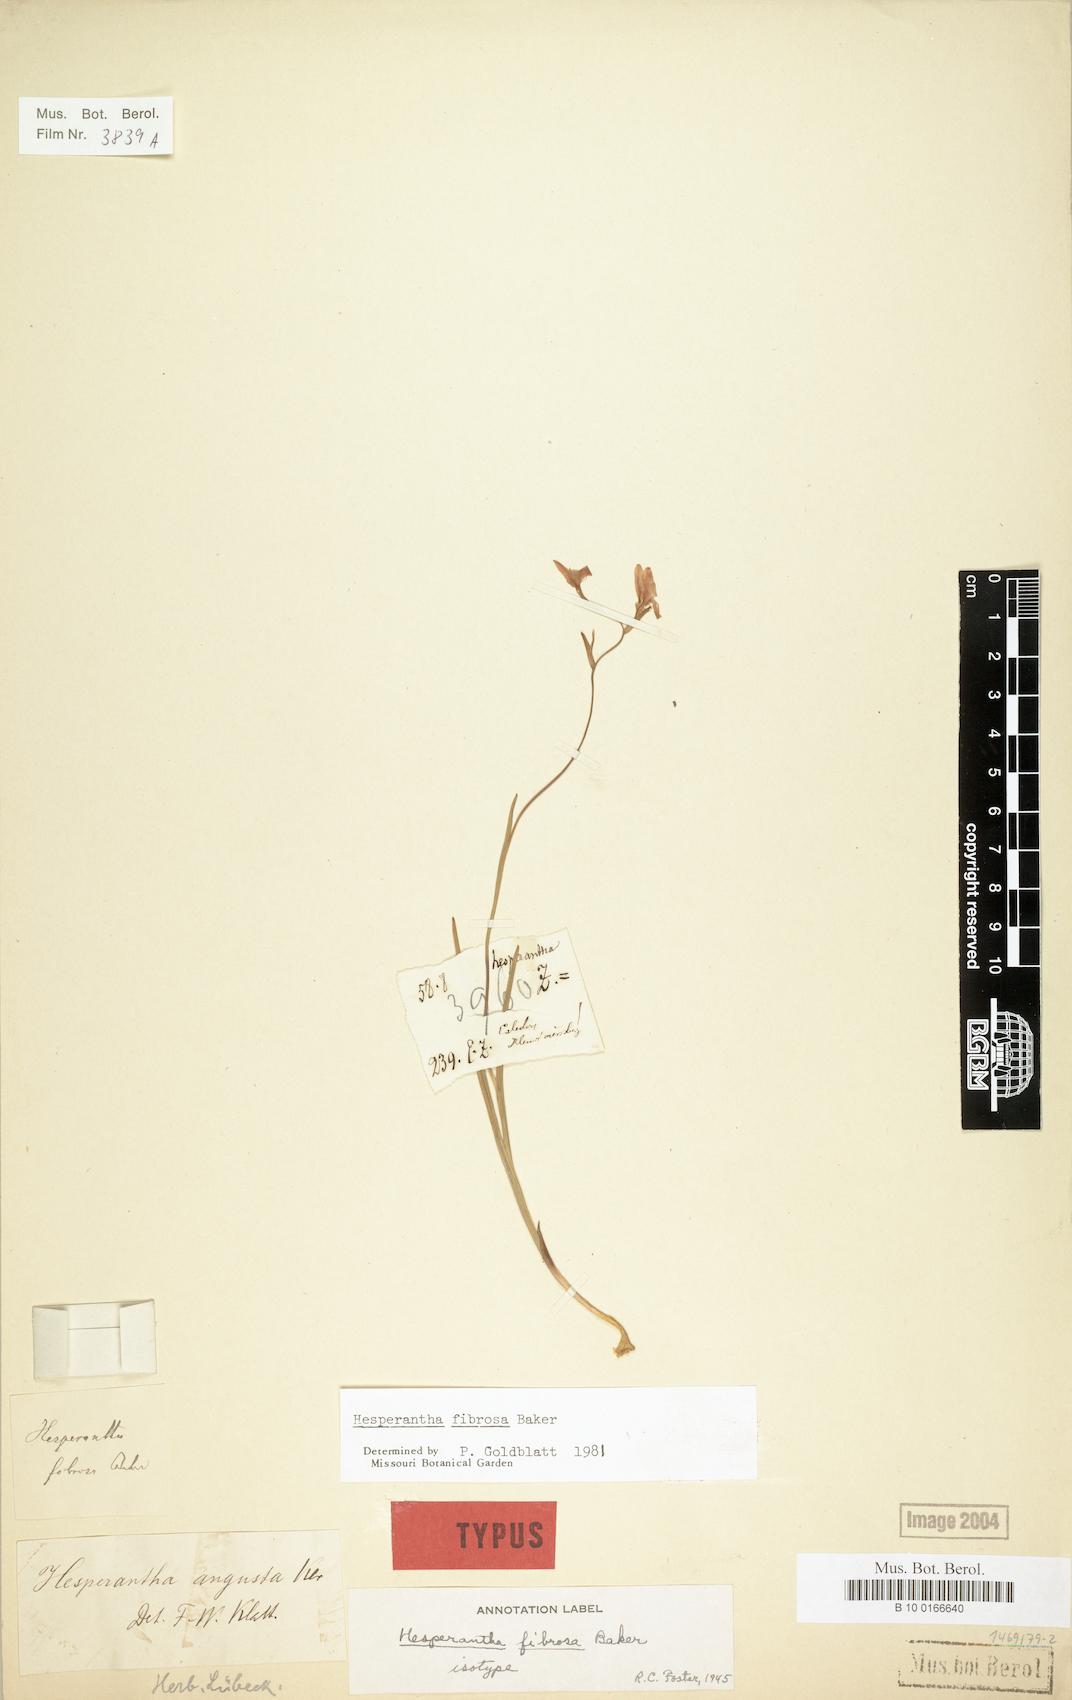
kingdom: Plantae
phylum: Tracheophyta
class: Liliopsida
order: Asparagales
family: Iridaceae
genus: Hesperantha
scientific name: Hesperantha fibrosa
